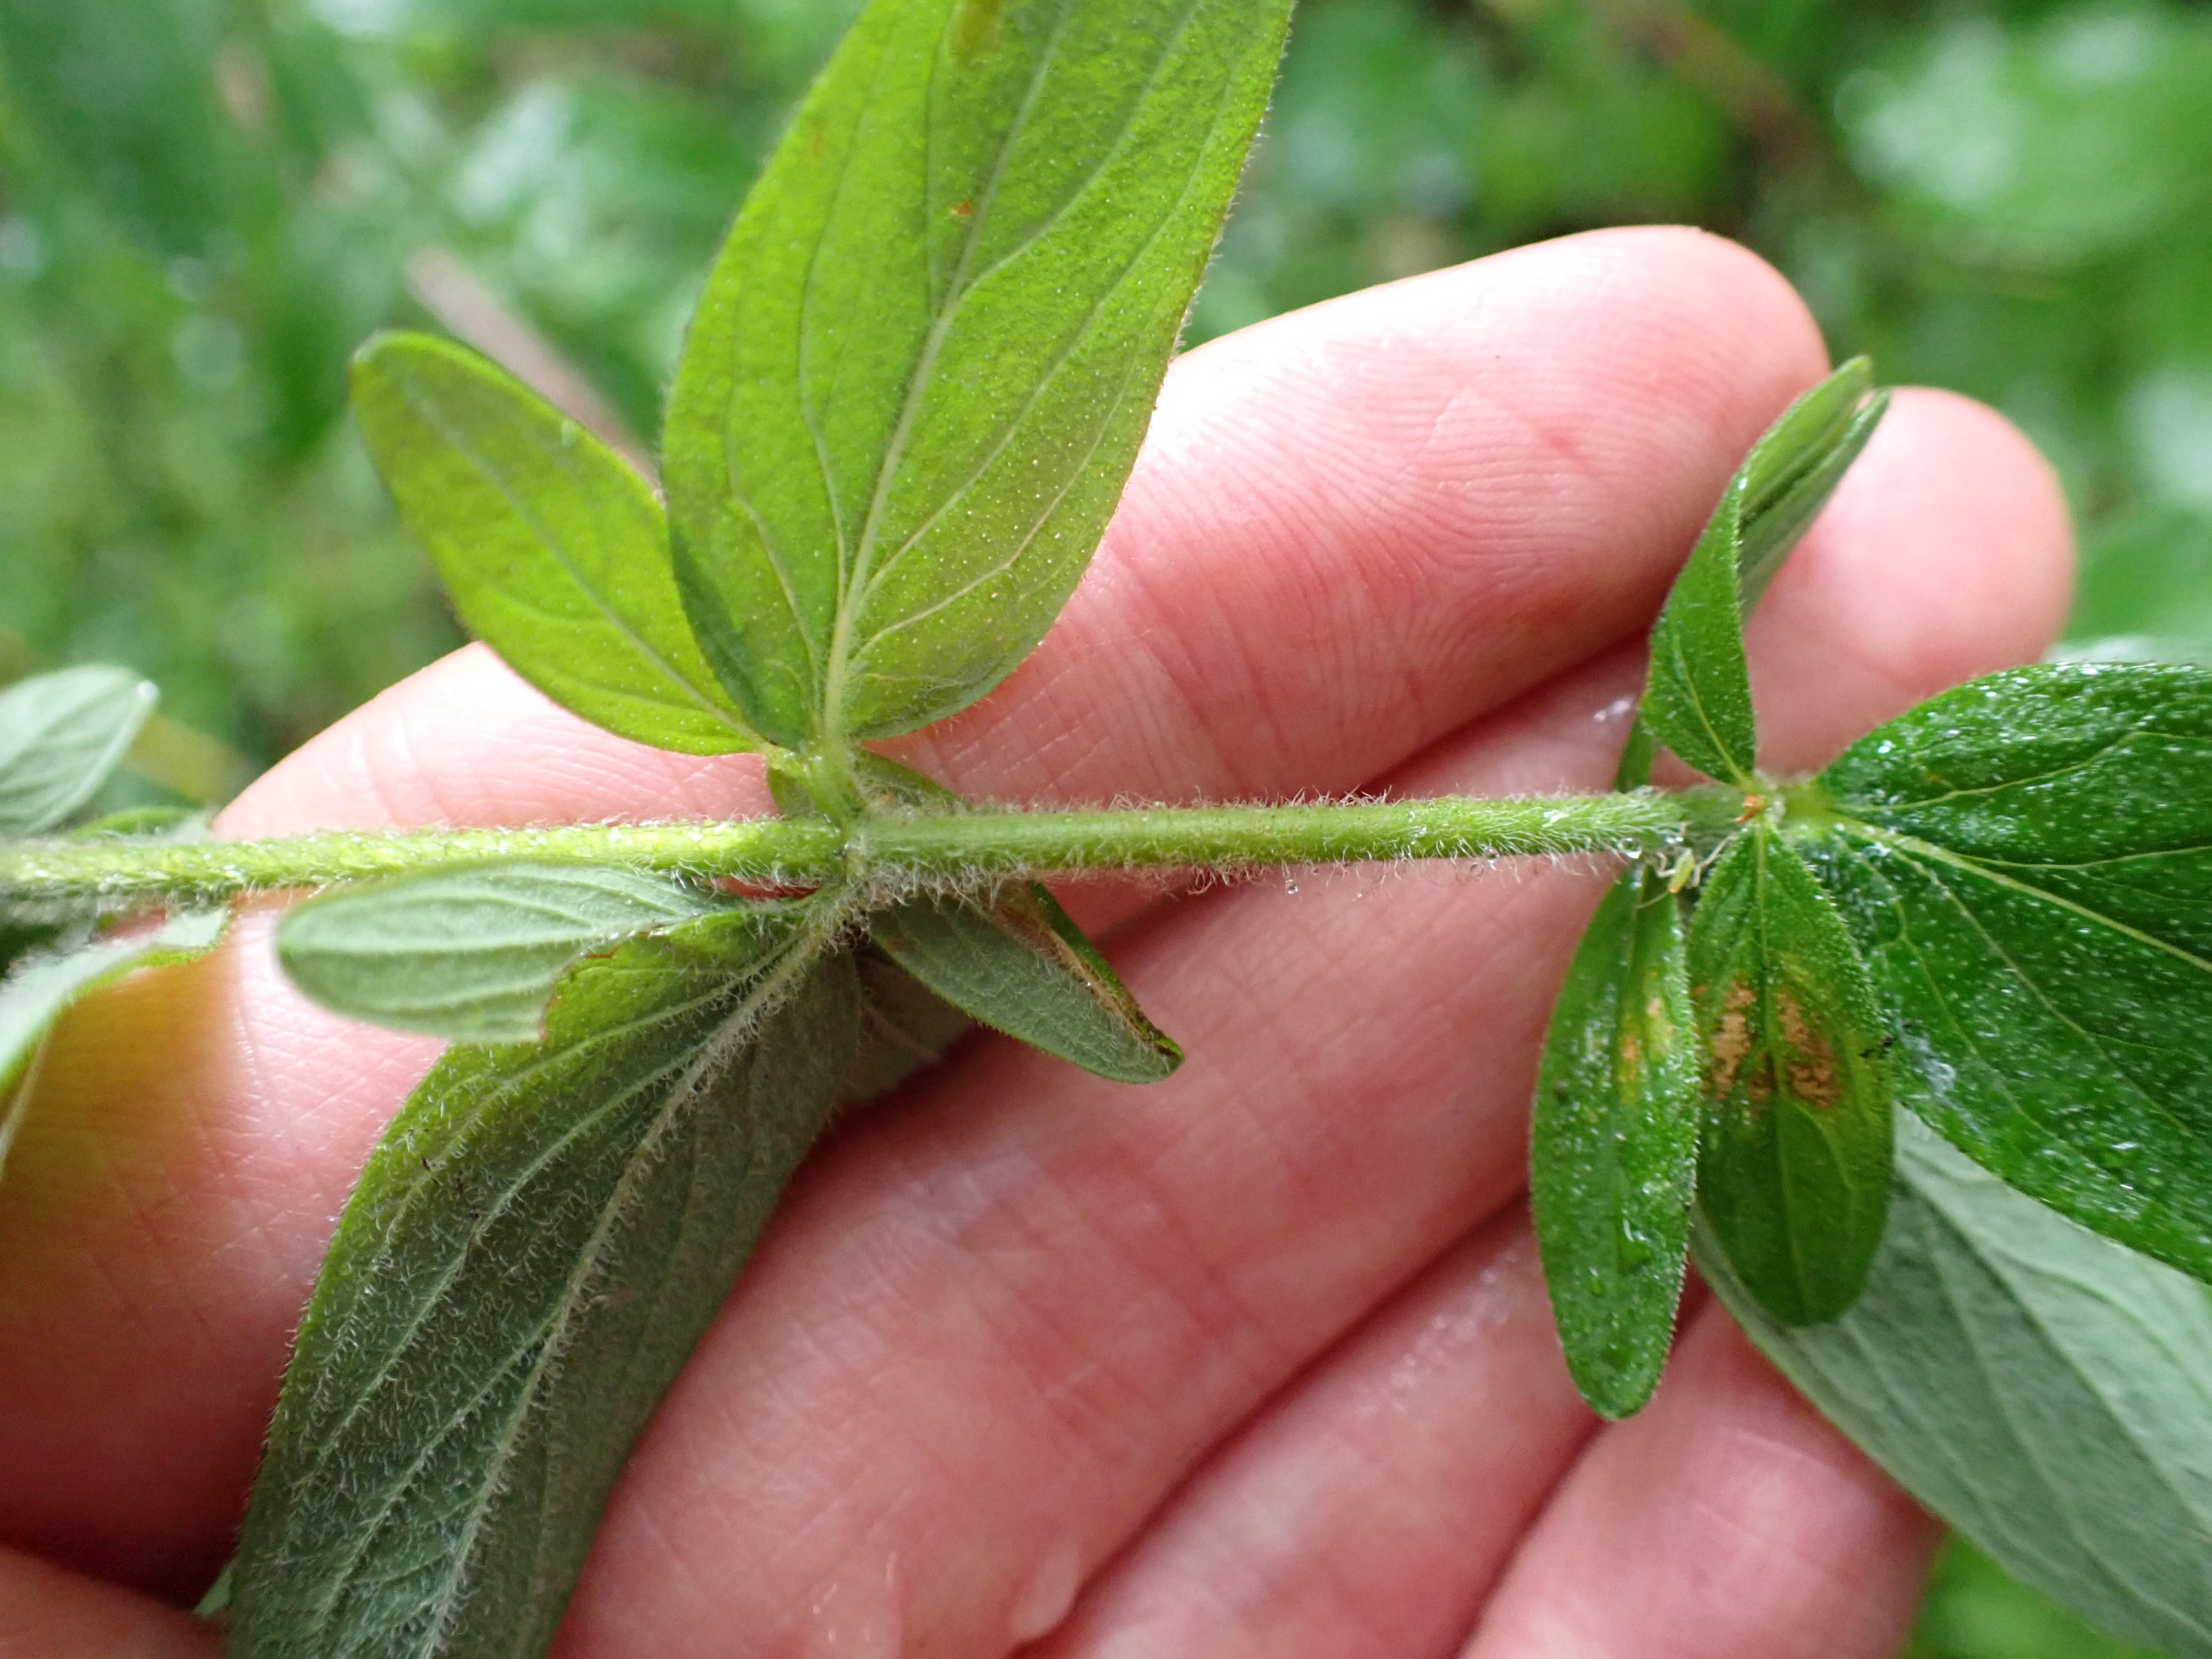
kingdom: Plantae
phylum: Tracheophyta
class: Magnoliopsida
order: Malpighiales
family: Hypericaceae
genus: Hypericum
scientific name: Hypericum hirsutum
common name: Lådden perikon
